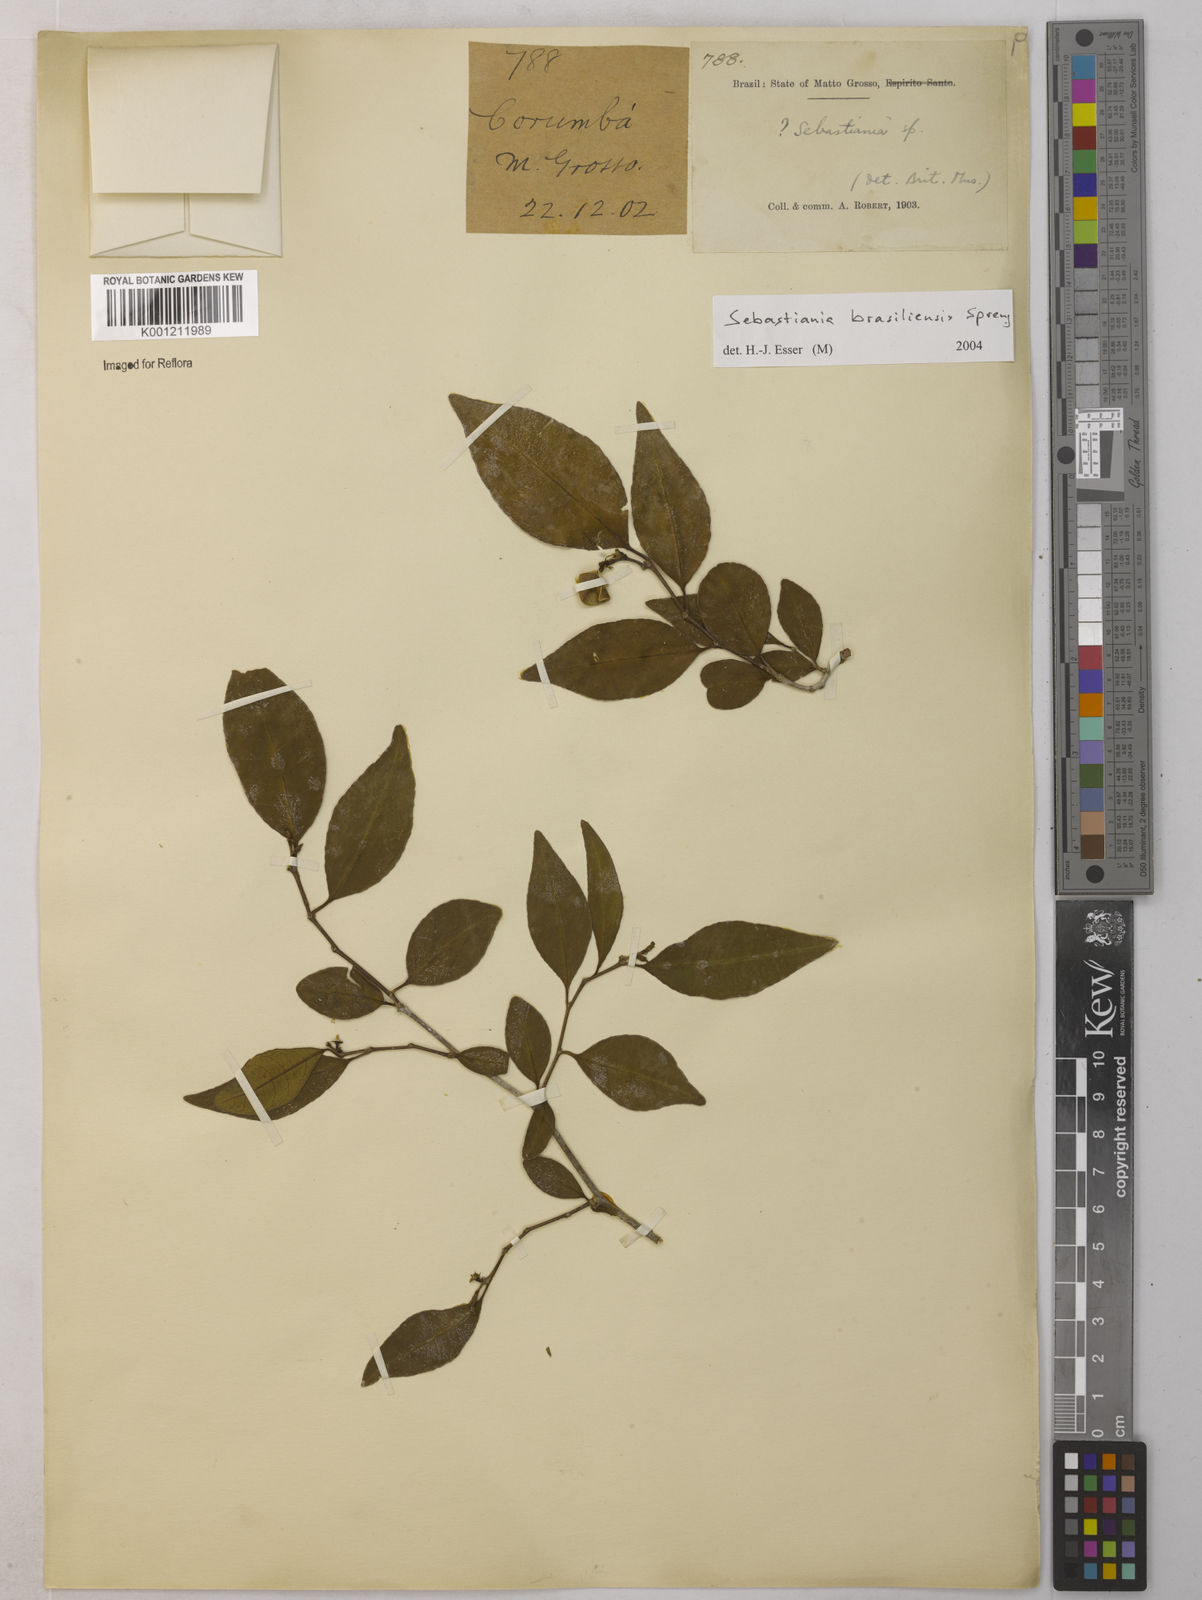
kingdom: Plantae
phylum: Tracheophyta
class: Magnoliopsida
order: Malpighiales
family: Euphorbiaceae
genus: Sebastiania
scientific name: Sebastiania brasiliensis
